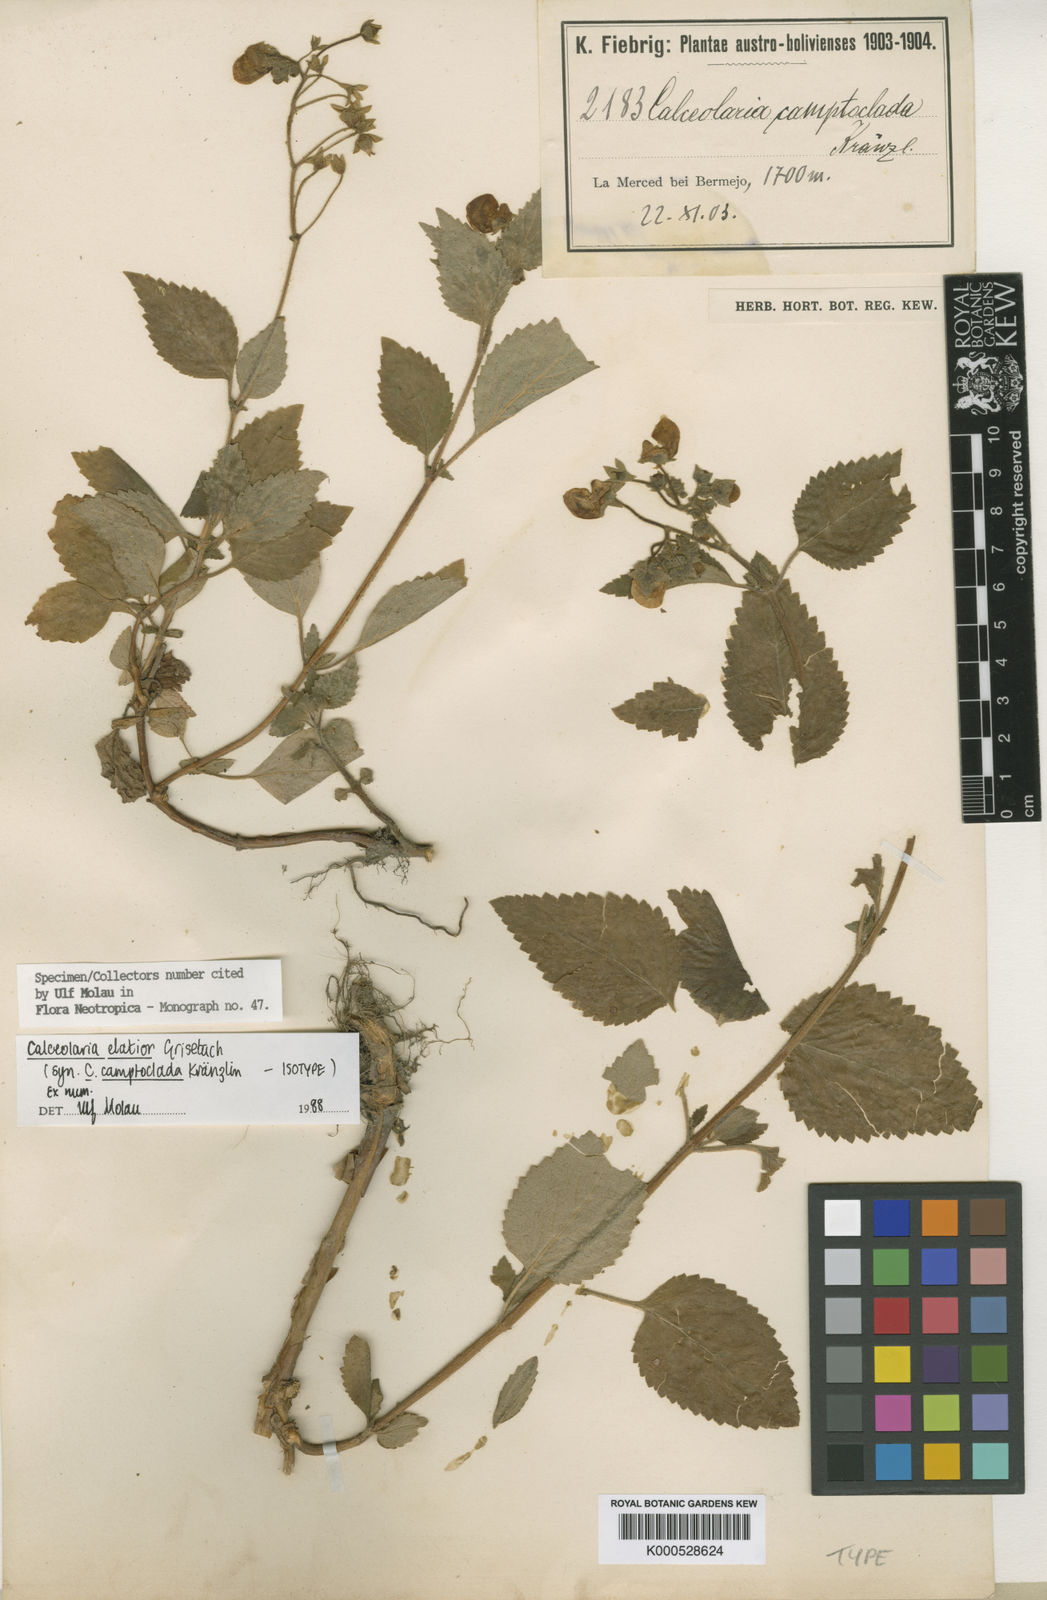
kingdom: Plantae
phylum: Tracheophyta
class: Magnoliopsida
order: Lamiales
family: Calceolariaceae
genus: Calceolaria
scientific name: Calceolaria elatior
